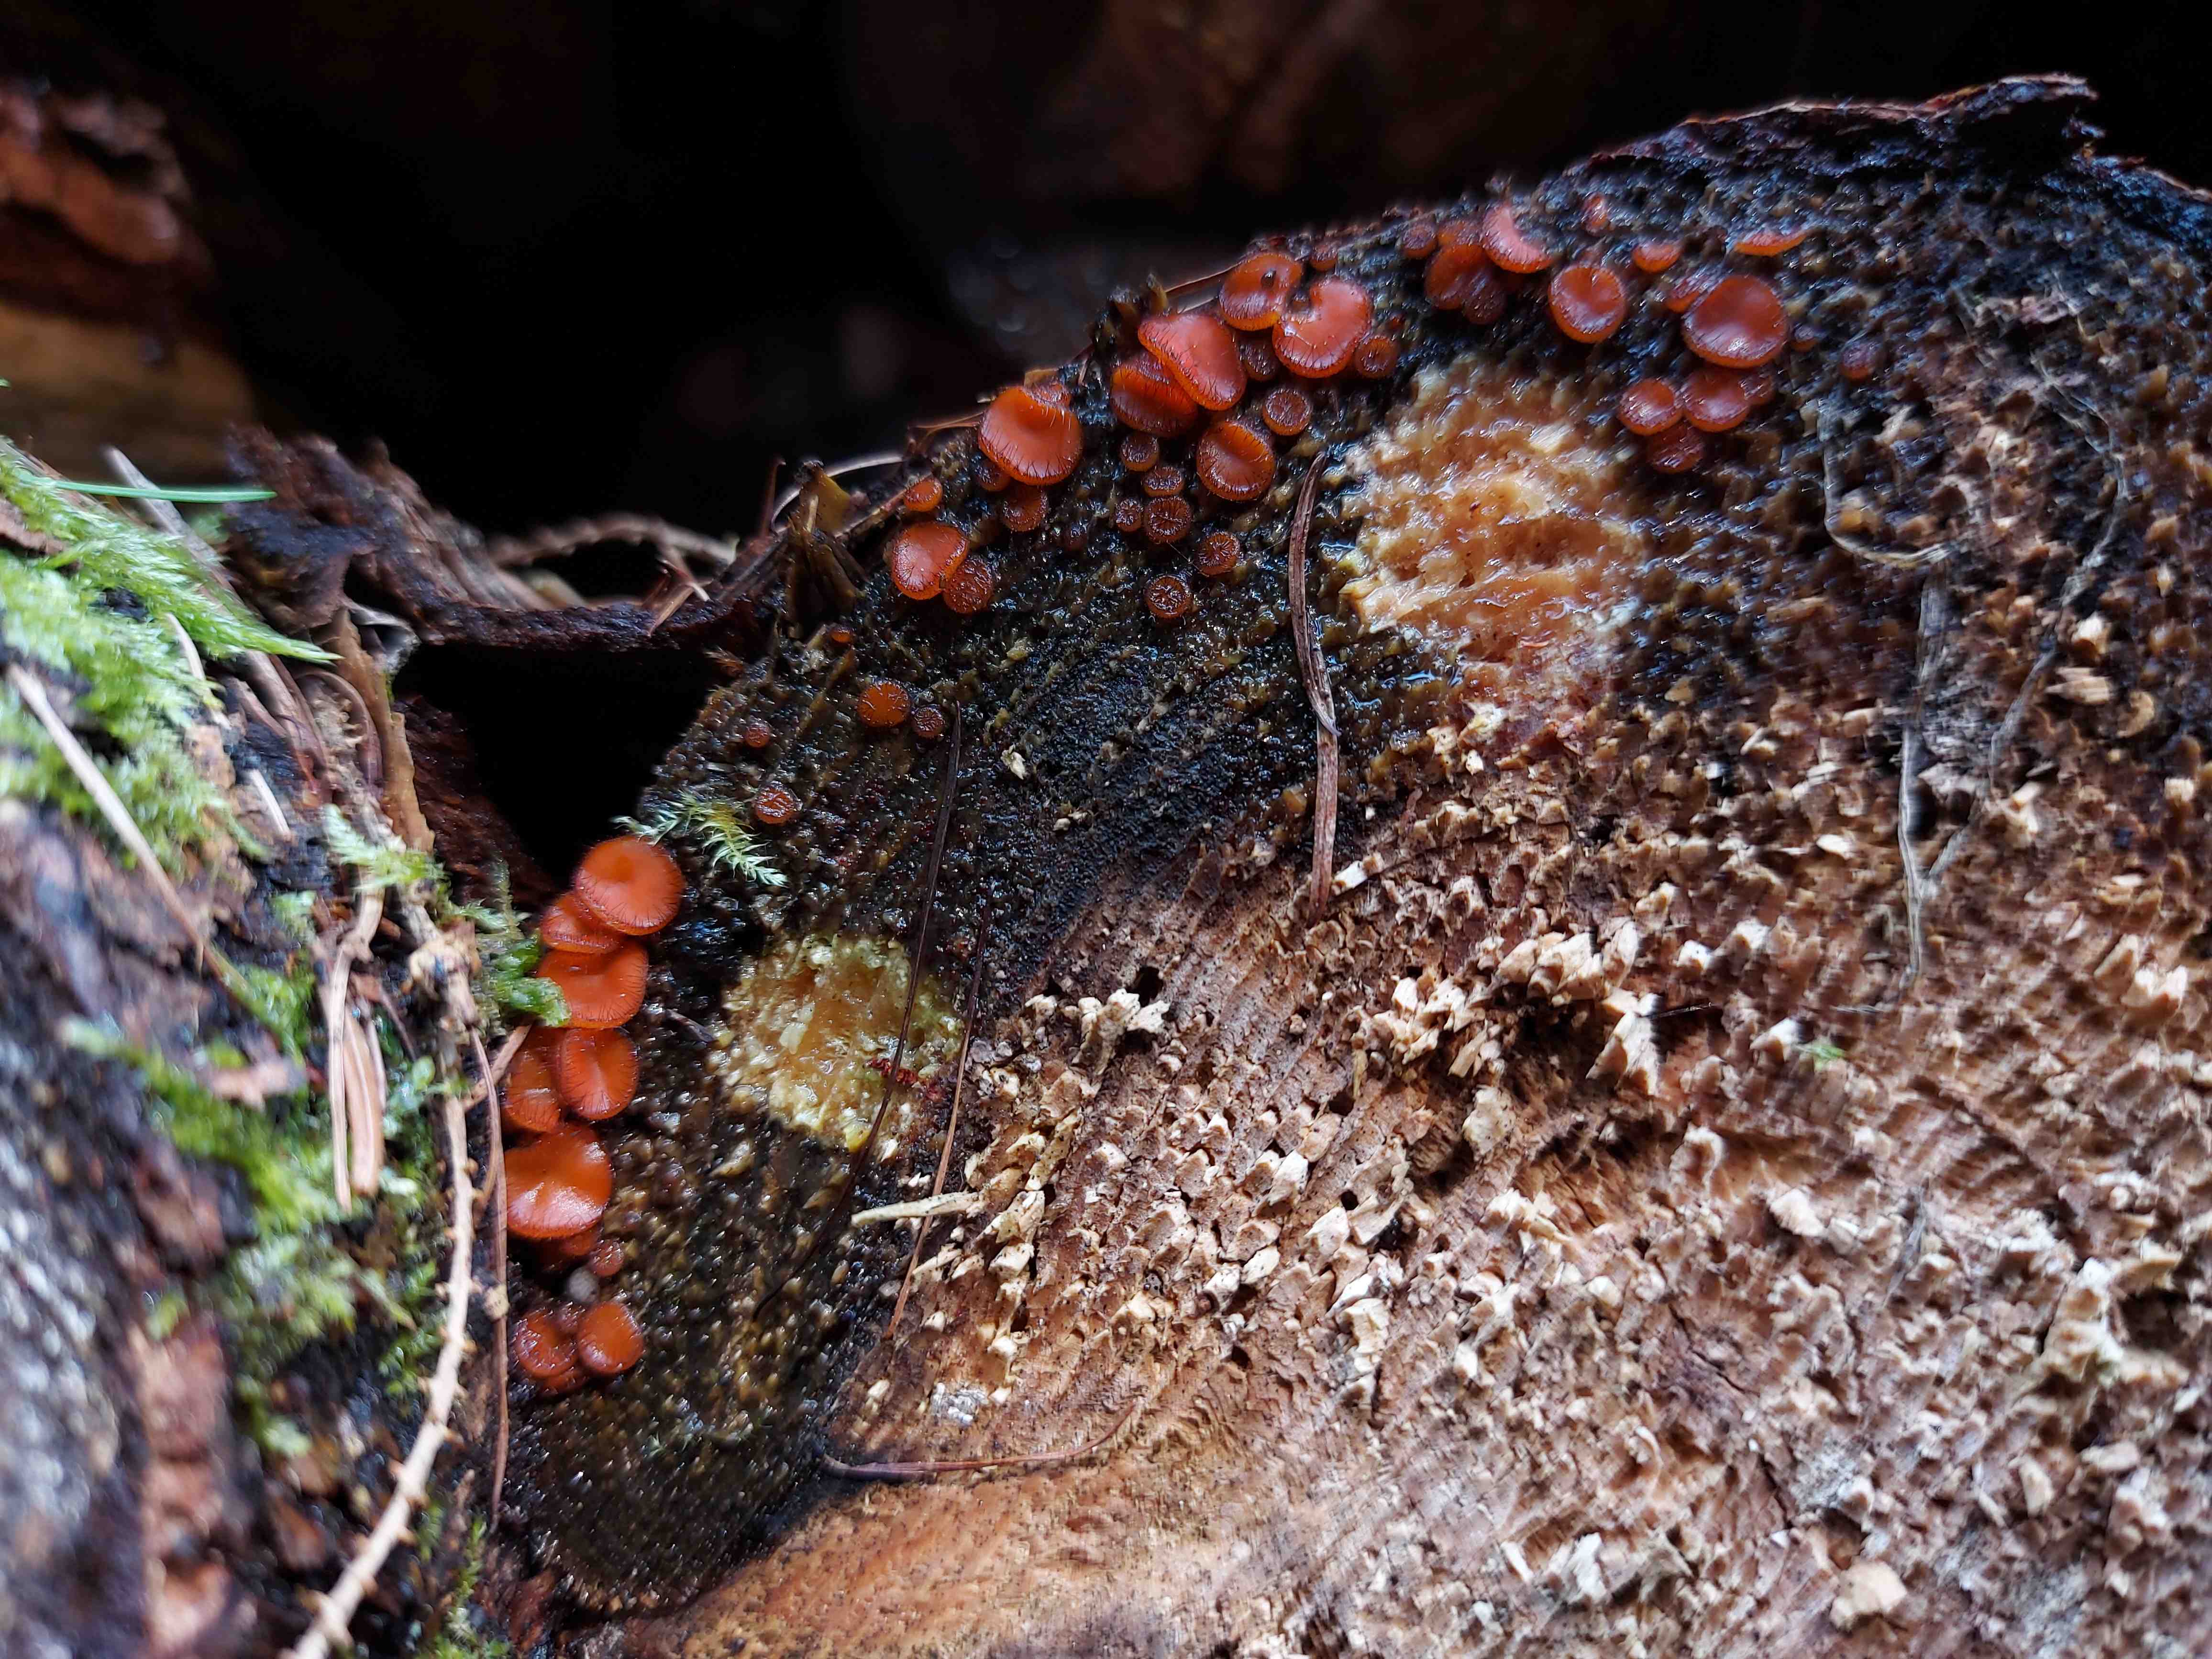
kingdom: Fungi
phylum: Ascomycota
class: Pezizomycetes
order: Pezizales
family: Pyronemataceae
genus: Scutellinia
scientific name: Scutellinia scutellata
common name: frynset skjoldbæger
